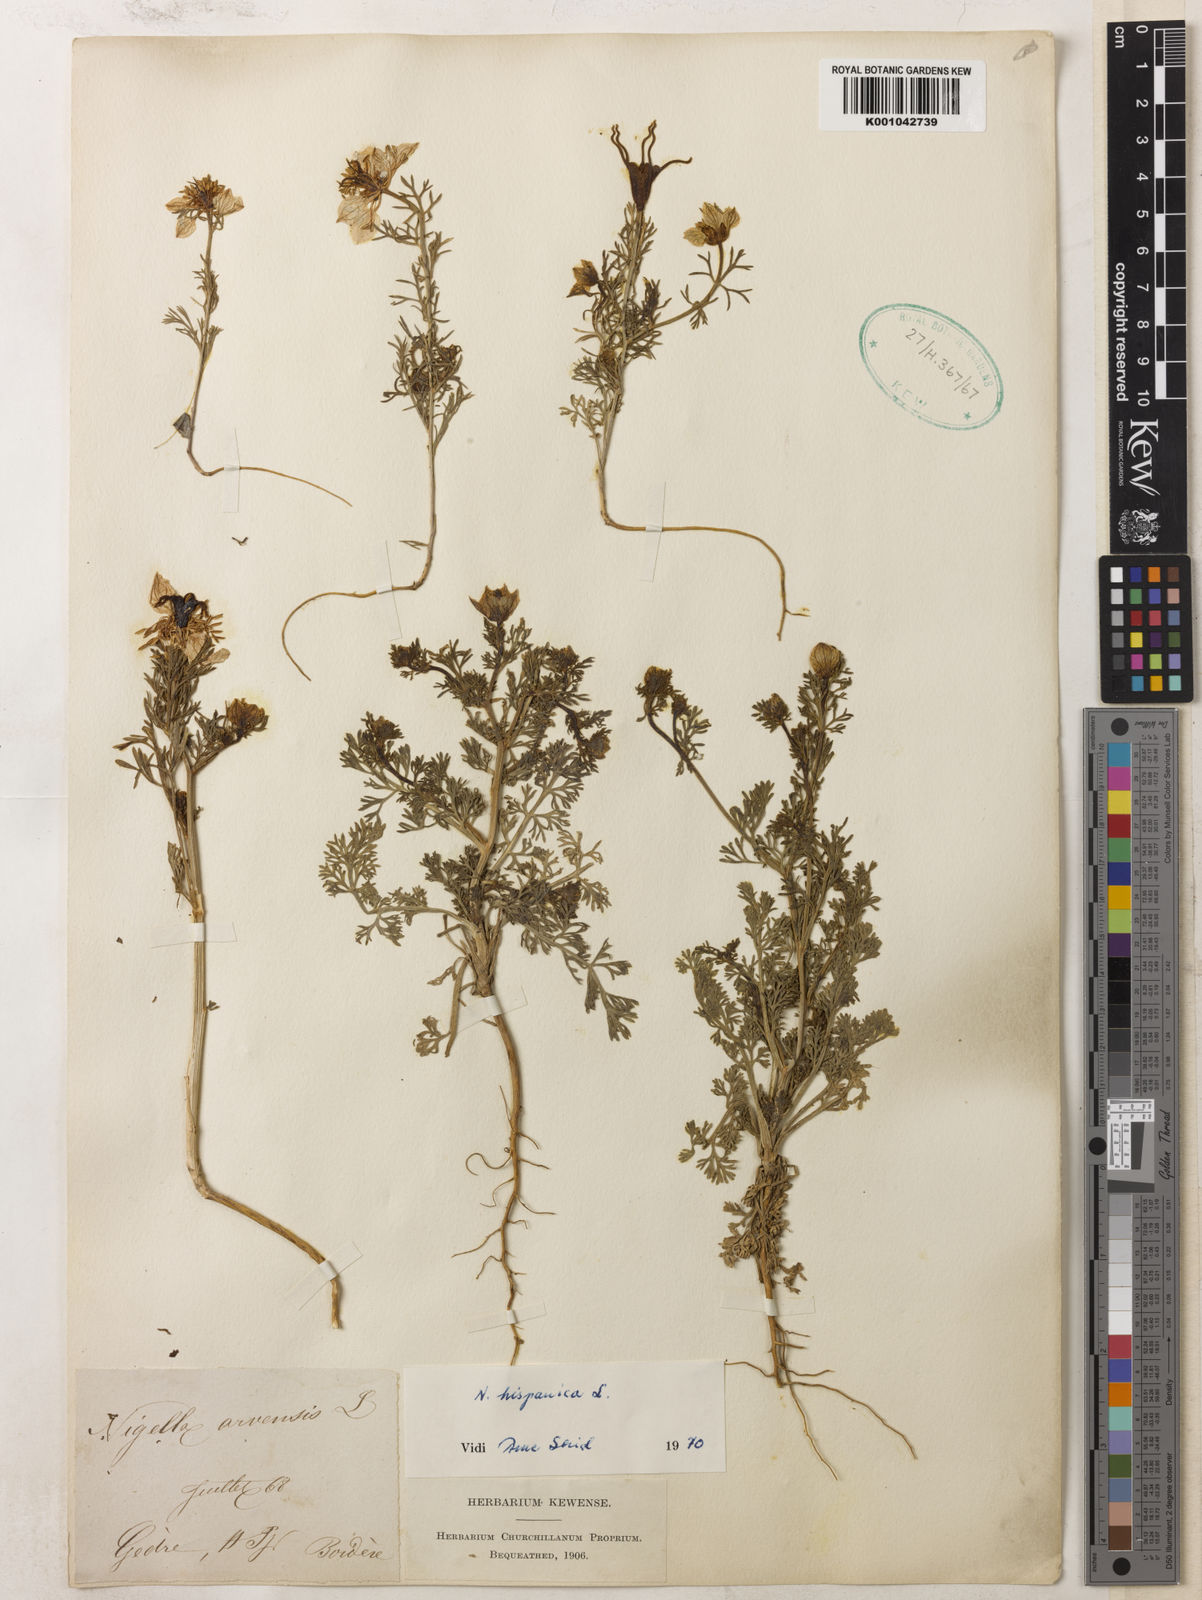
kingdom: Plantae
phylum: Tracheophyta
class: Magnoliopsida
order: Ranunculales
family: Ranunculaceae
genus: Nigella
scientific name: Nigella hispanica
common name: Fennel-flower
